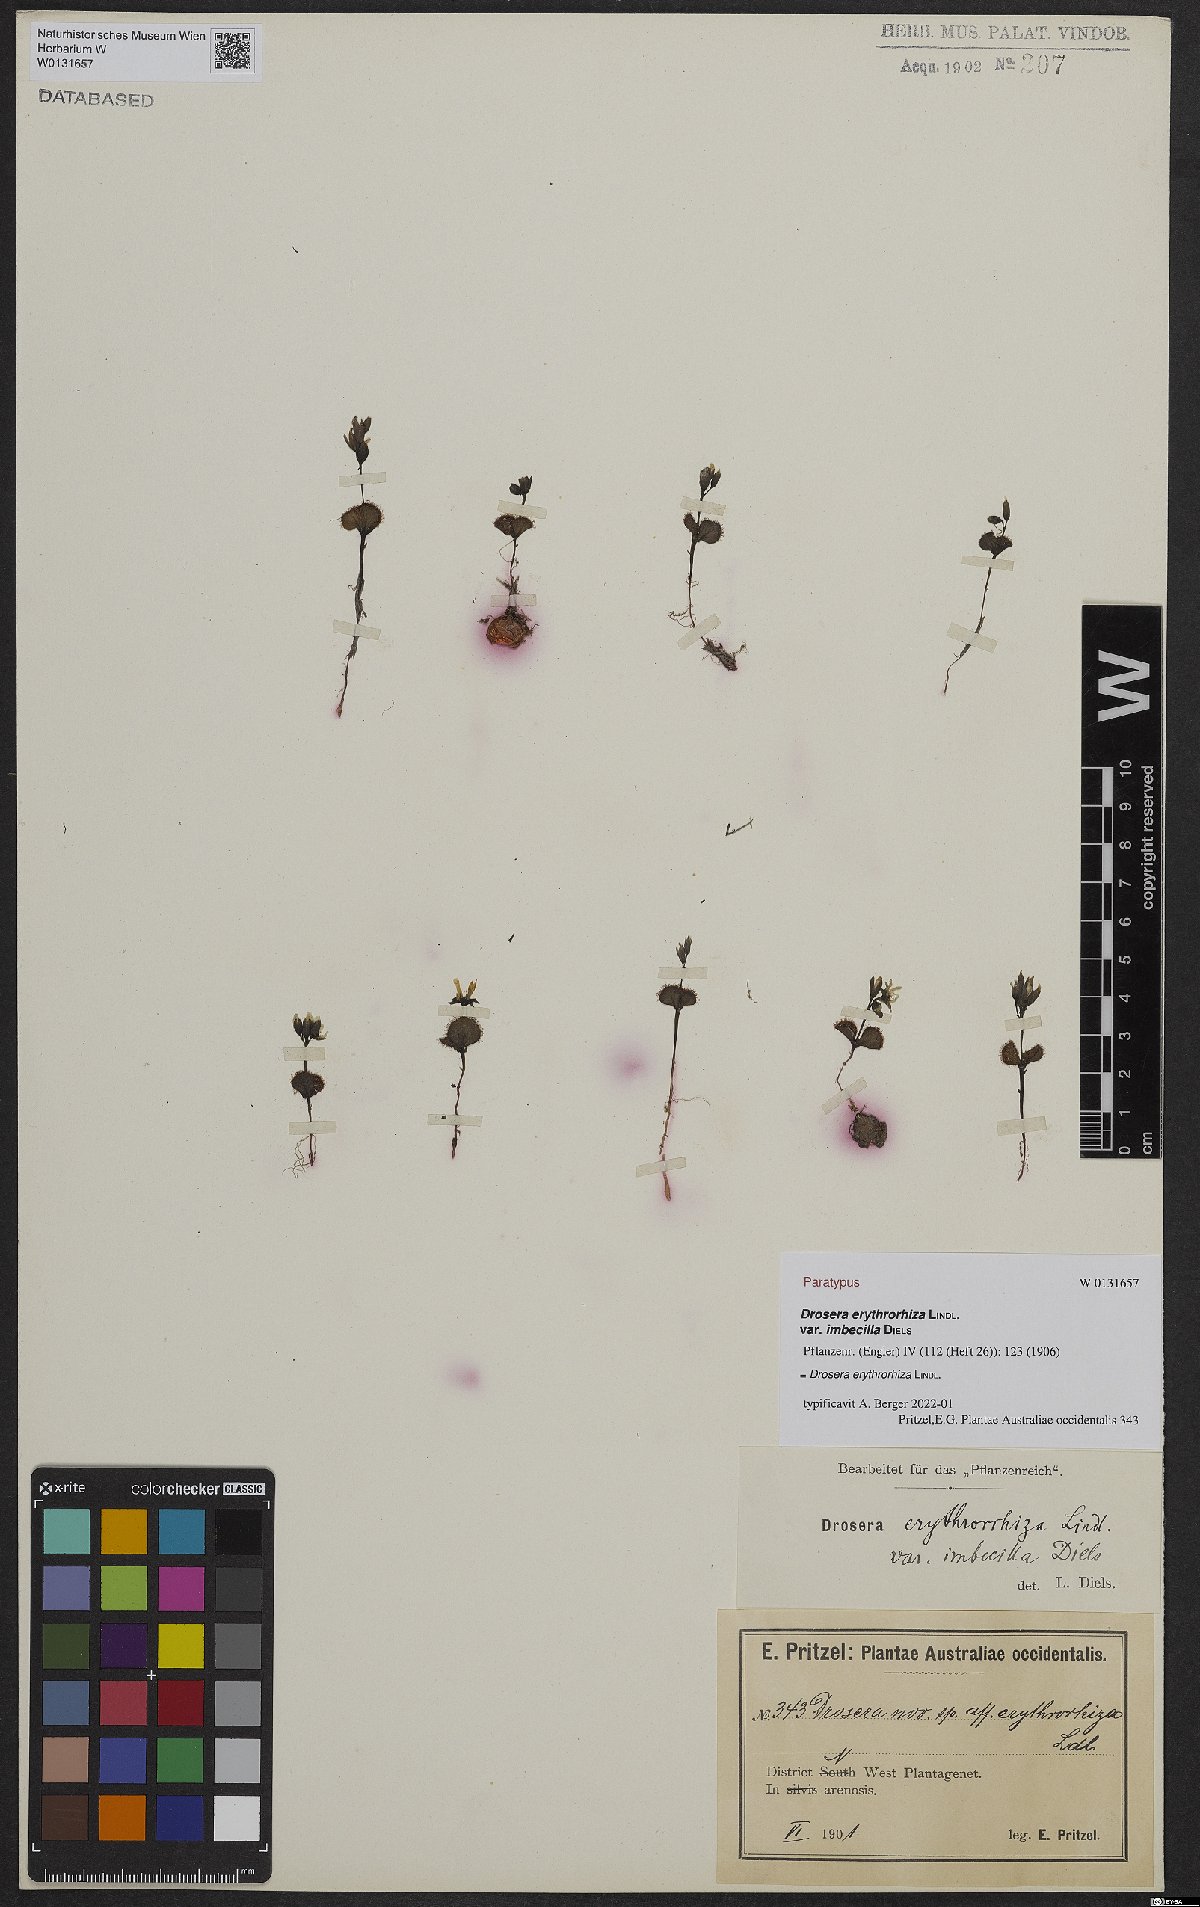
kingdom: Plantae
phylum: Tracheophyta
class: Magnoliopsida
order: Caryophyllales
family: Droseraceae
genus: Drosera
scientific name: Drosera erythrorhiza
